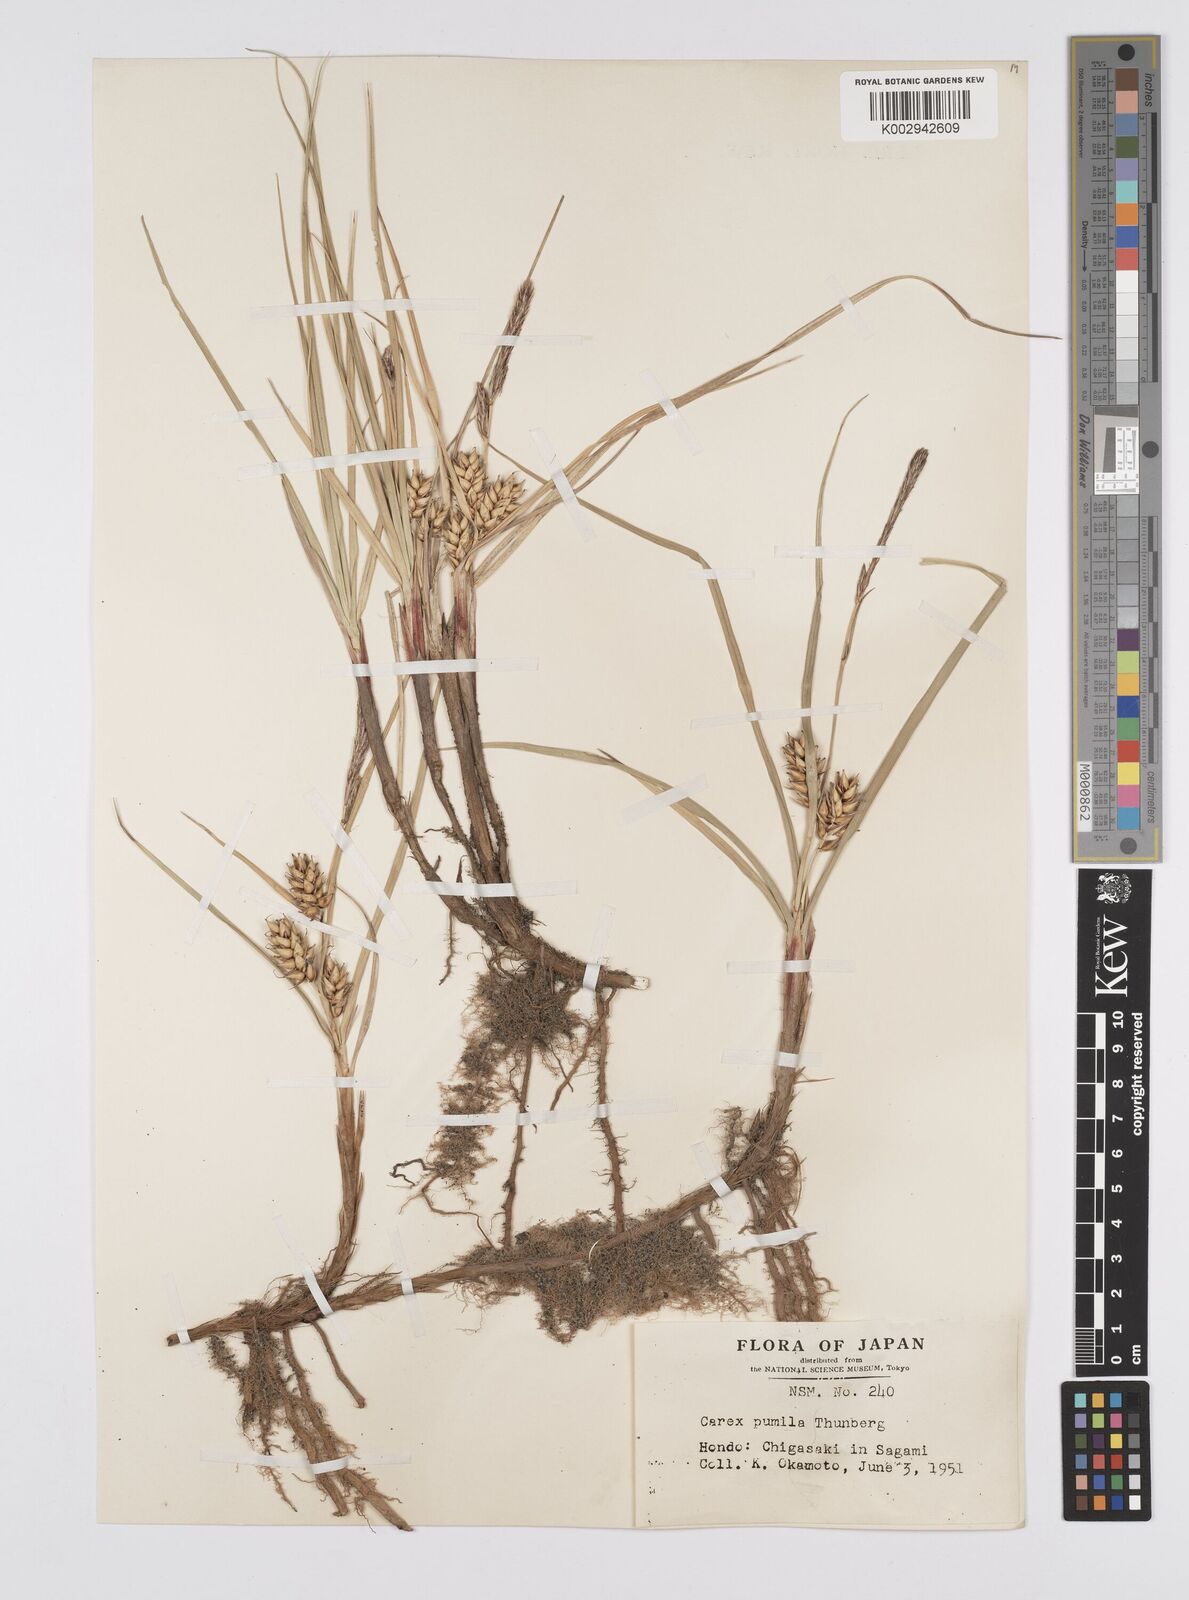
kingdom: Plantae
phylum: Tracheophyta
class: Liliopsida
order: Poales
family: Cyperaceae
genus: Carex
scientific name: Carex pumila
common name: Dwarf sedge
